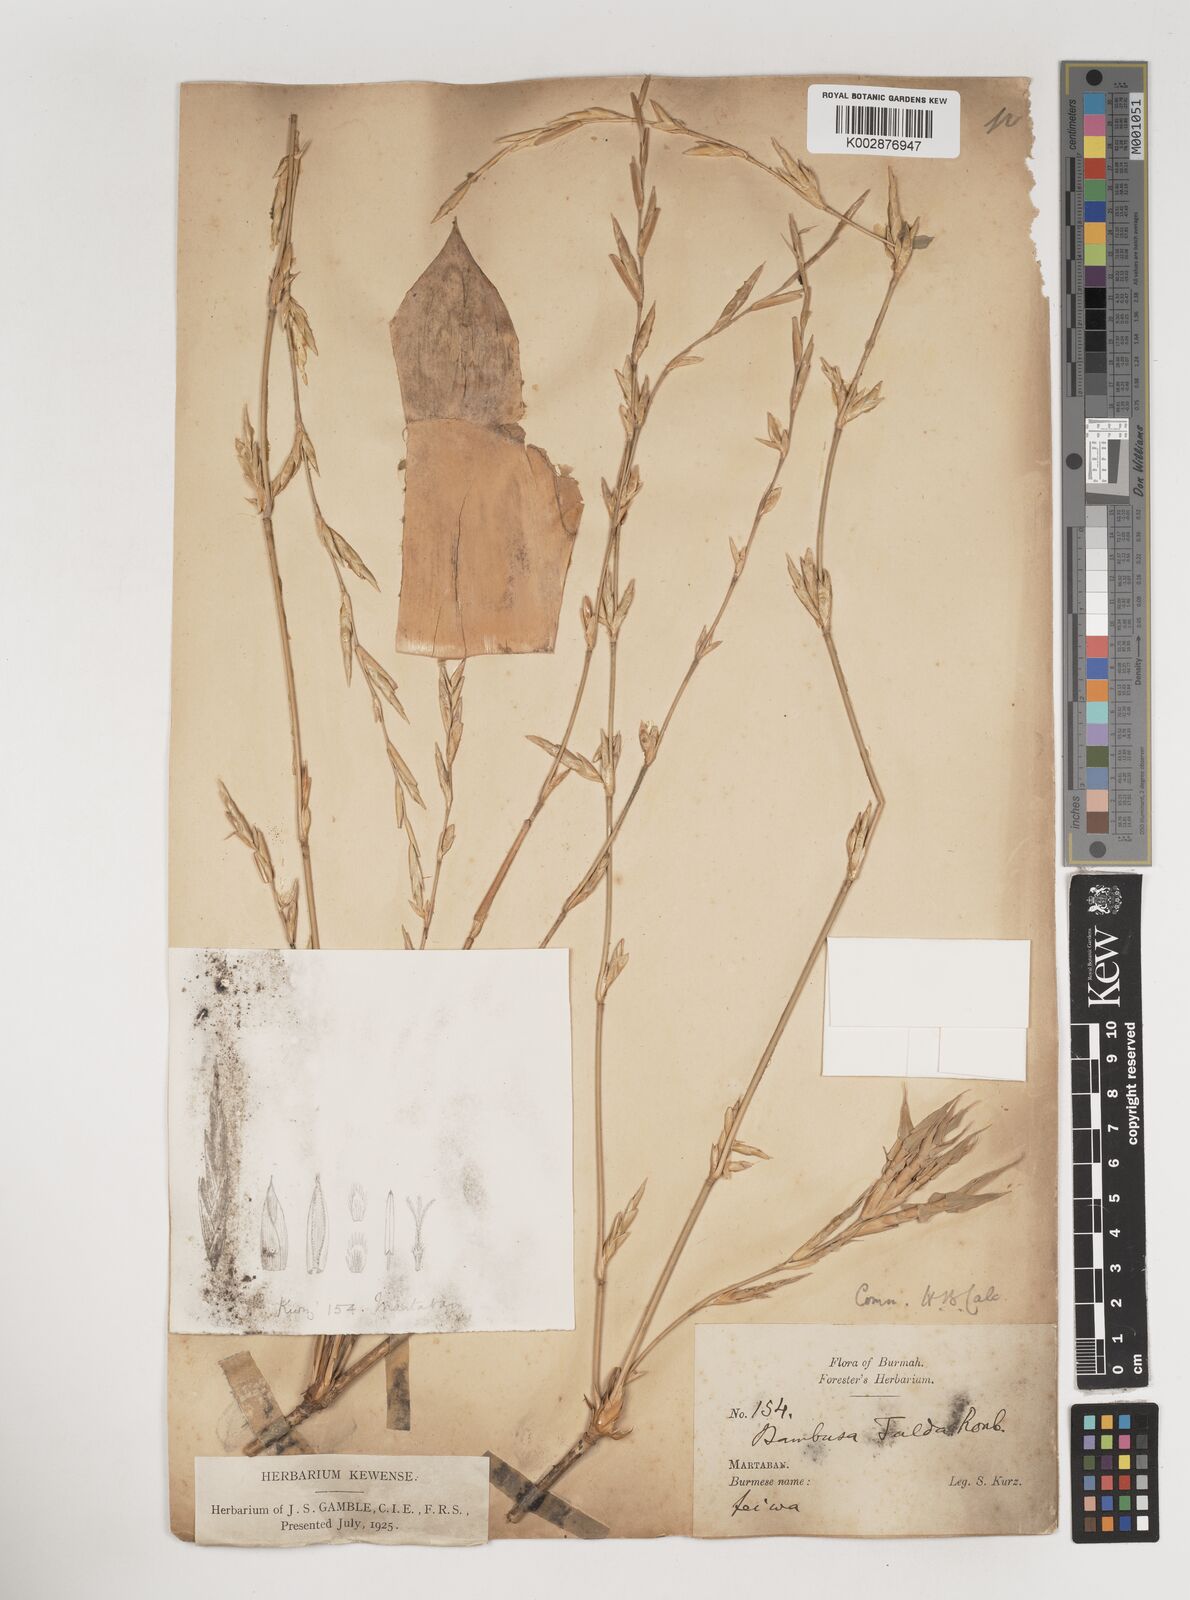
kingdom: Plantae
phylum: Tracheophyta
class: Liliopsida
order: Poales
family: Poaceae
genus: Bambusa
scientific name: Bambusa tulda
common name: Bengal bamboo
